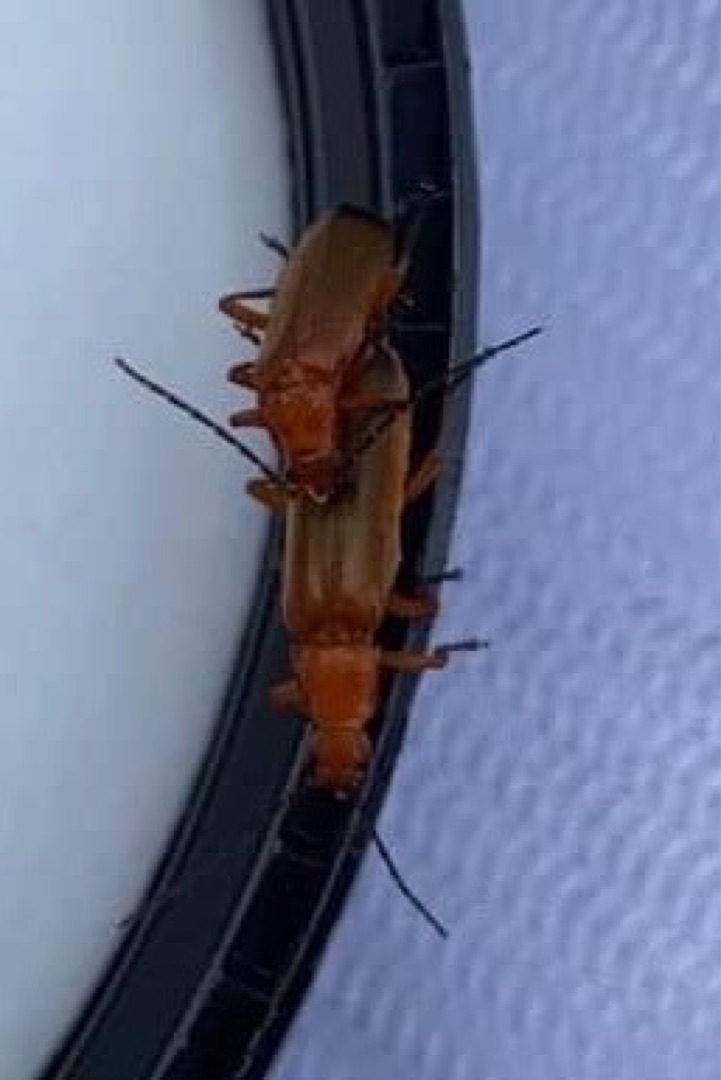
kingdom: Animalia
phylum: Arthropoda
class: Insecta
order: Coleoptera
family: Cantharidae
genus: Rhagonycha
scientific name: Rhagonycha fulva
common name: Præstebille
